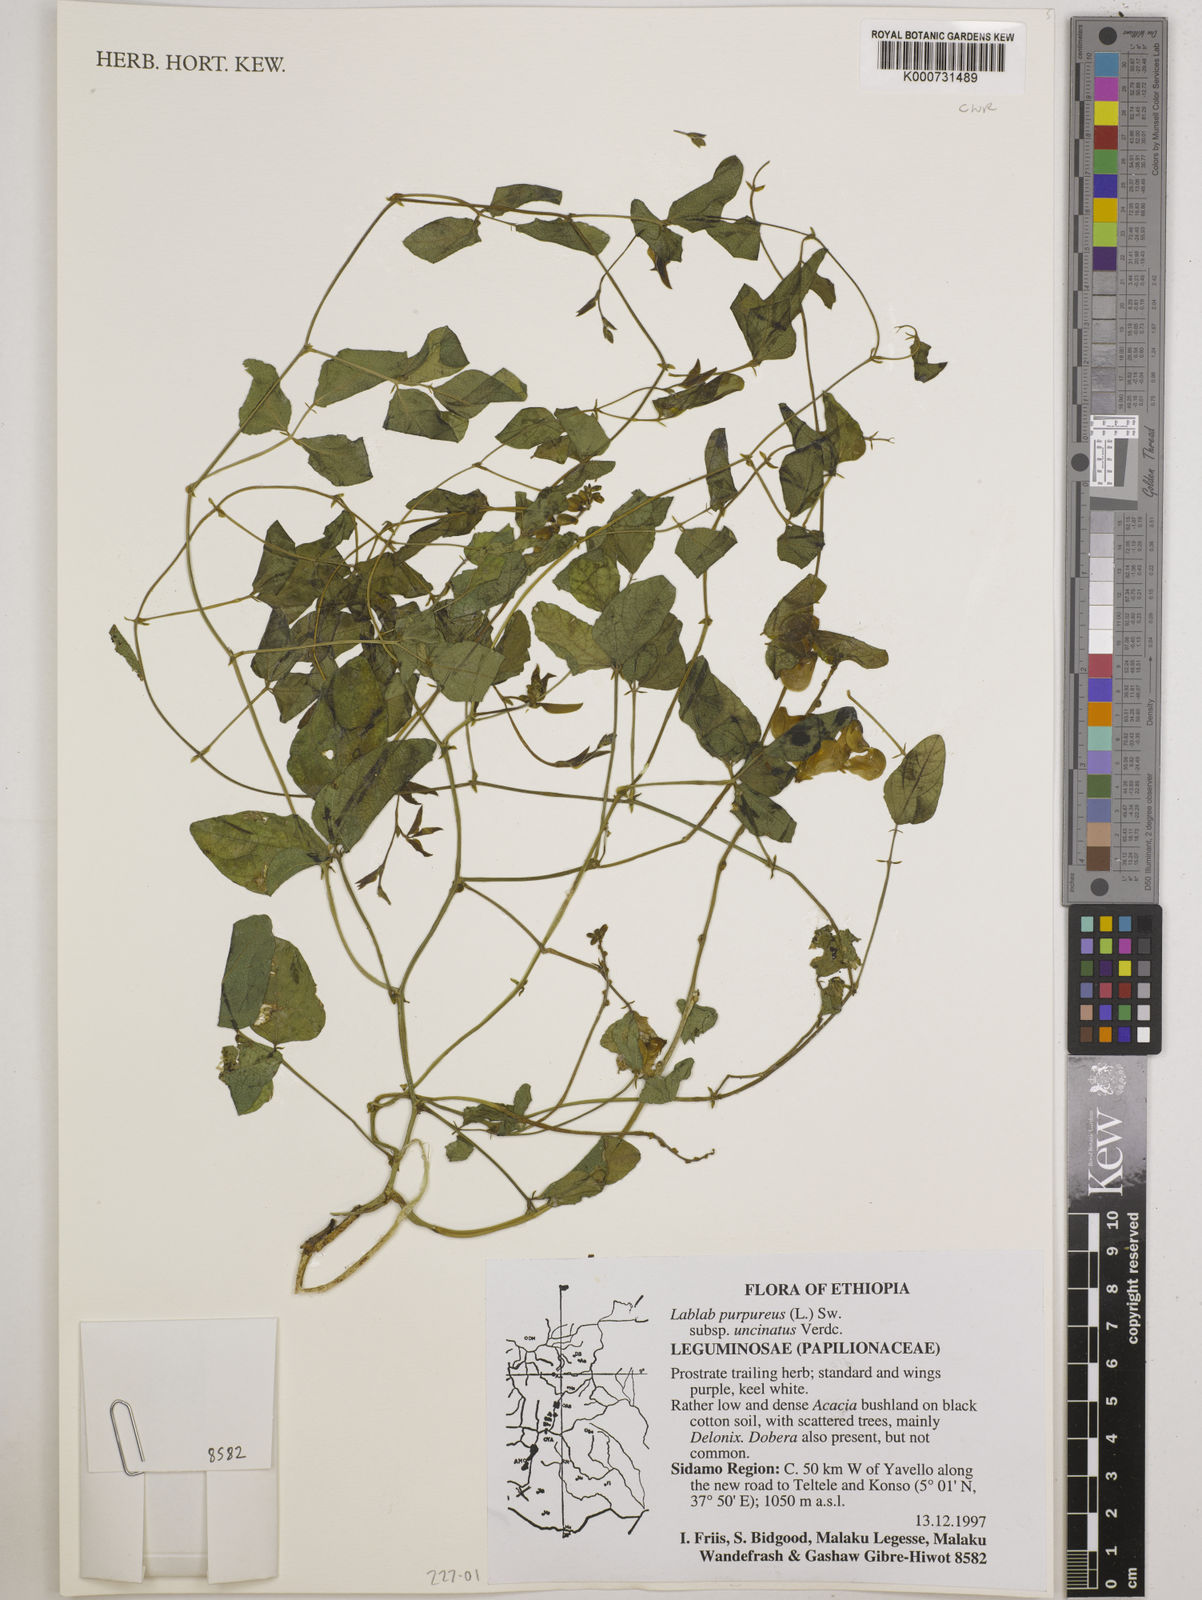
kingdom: Plantae
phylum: Tracheophyta
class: Magnoliopsida
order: Fabales
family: Fabaceae
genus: Lablab
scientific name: Lablab purpureus
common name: Lablab-bean
